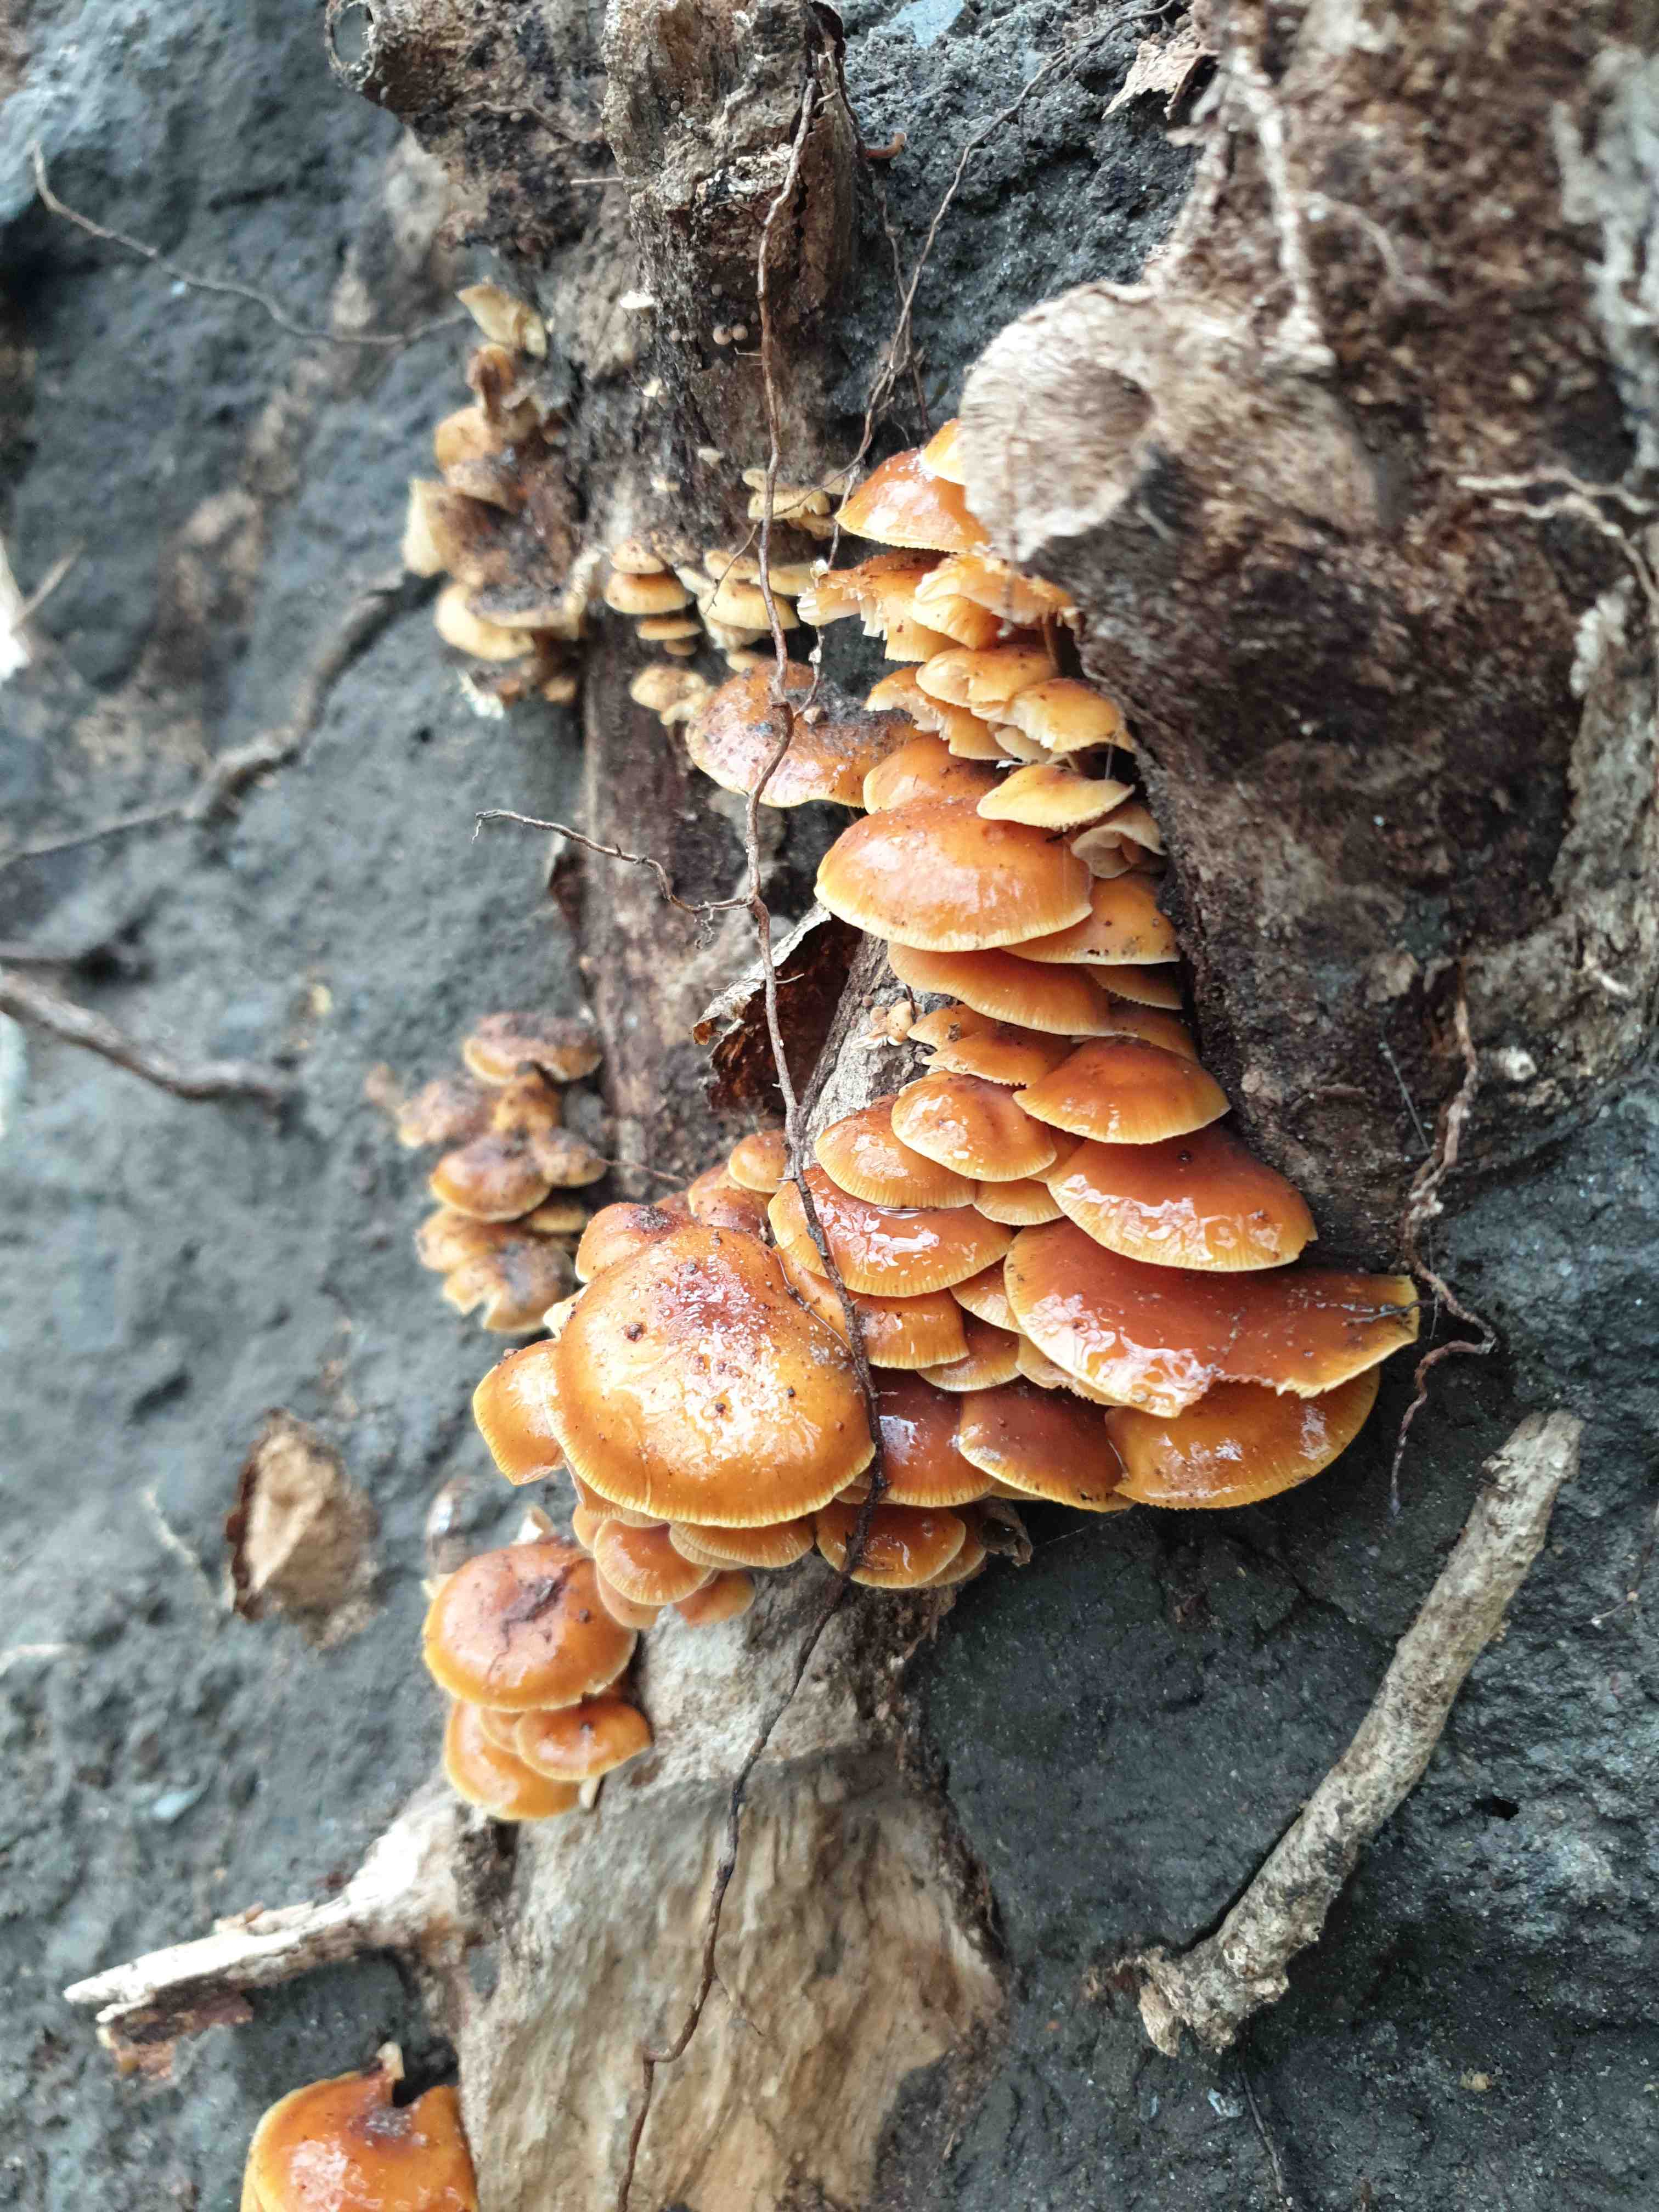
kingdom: Fungi
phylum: Basidiomycota
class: Agaricomycetes
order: Agaricales
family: Physalacriaceae
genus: Flammulina
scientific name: Flammulina velutipes
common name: gul fløjlsfod
